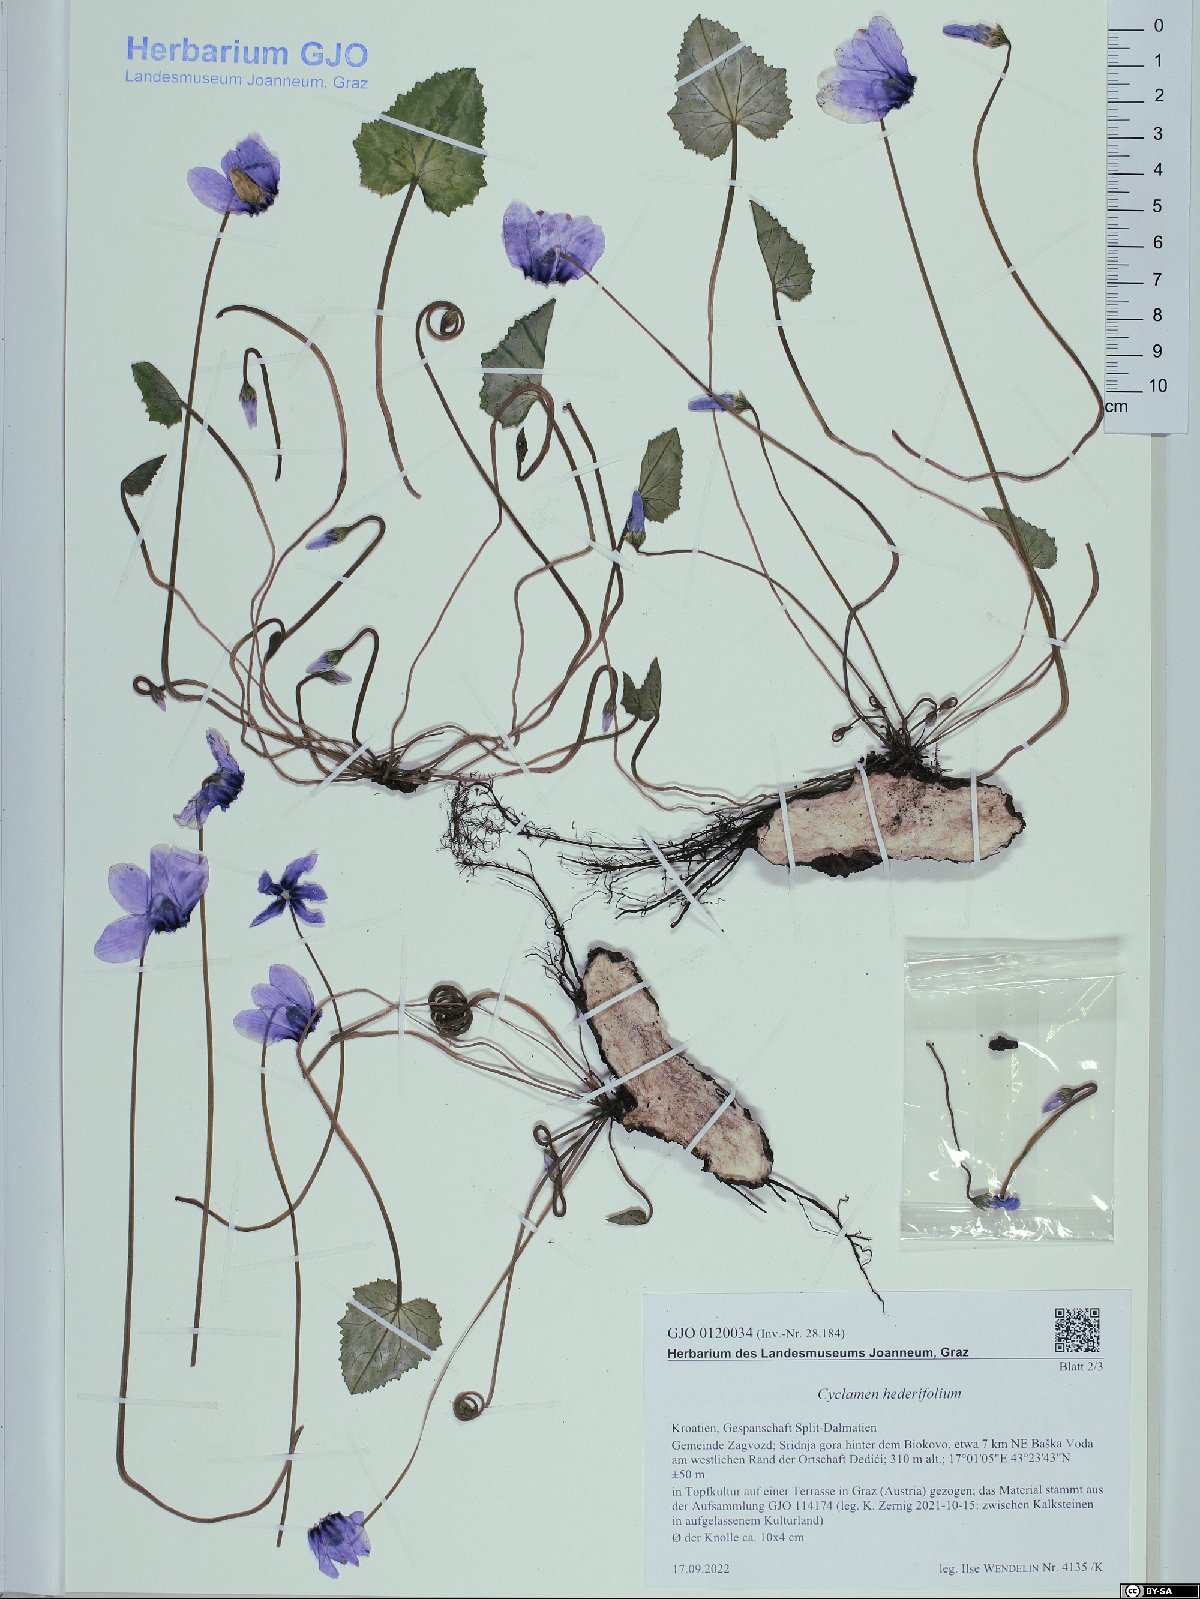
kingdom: Plantae
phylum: Tracheophyta
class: Magnoliopsida
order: Ericales
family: Primulaceae
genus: Cyclamen
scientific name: Cyclamen hederifolium
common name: Sowbread
